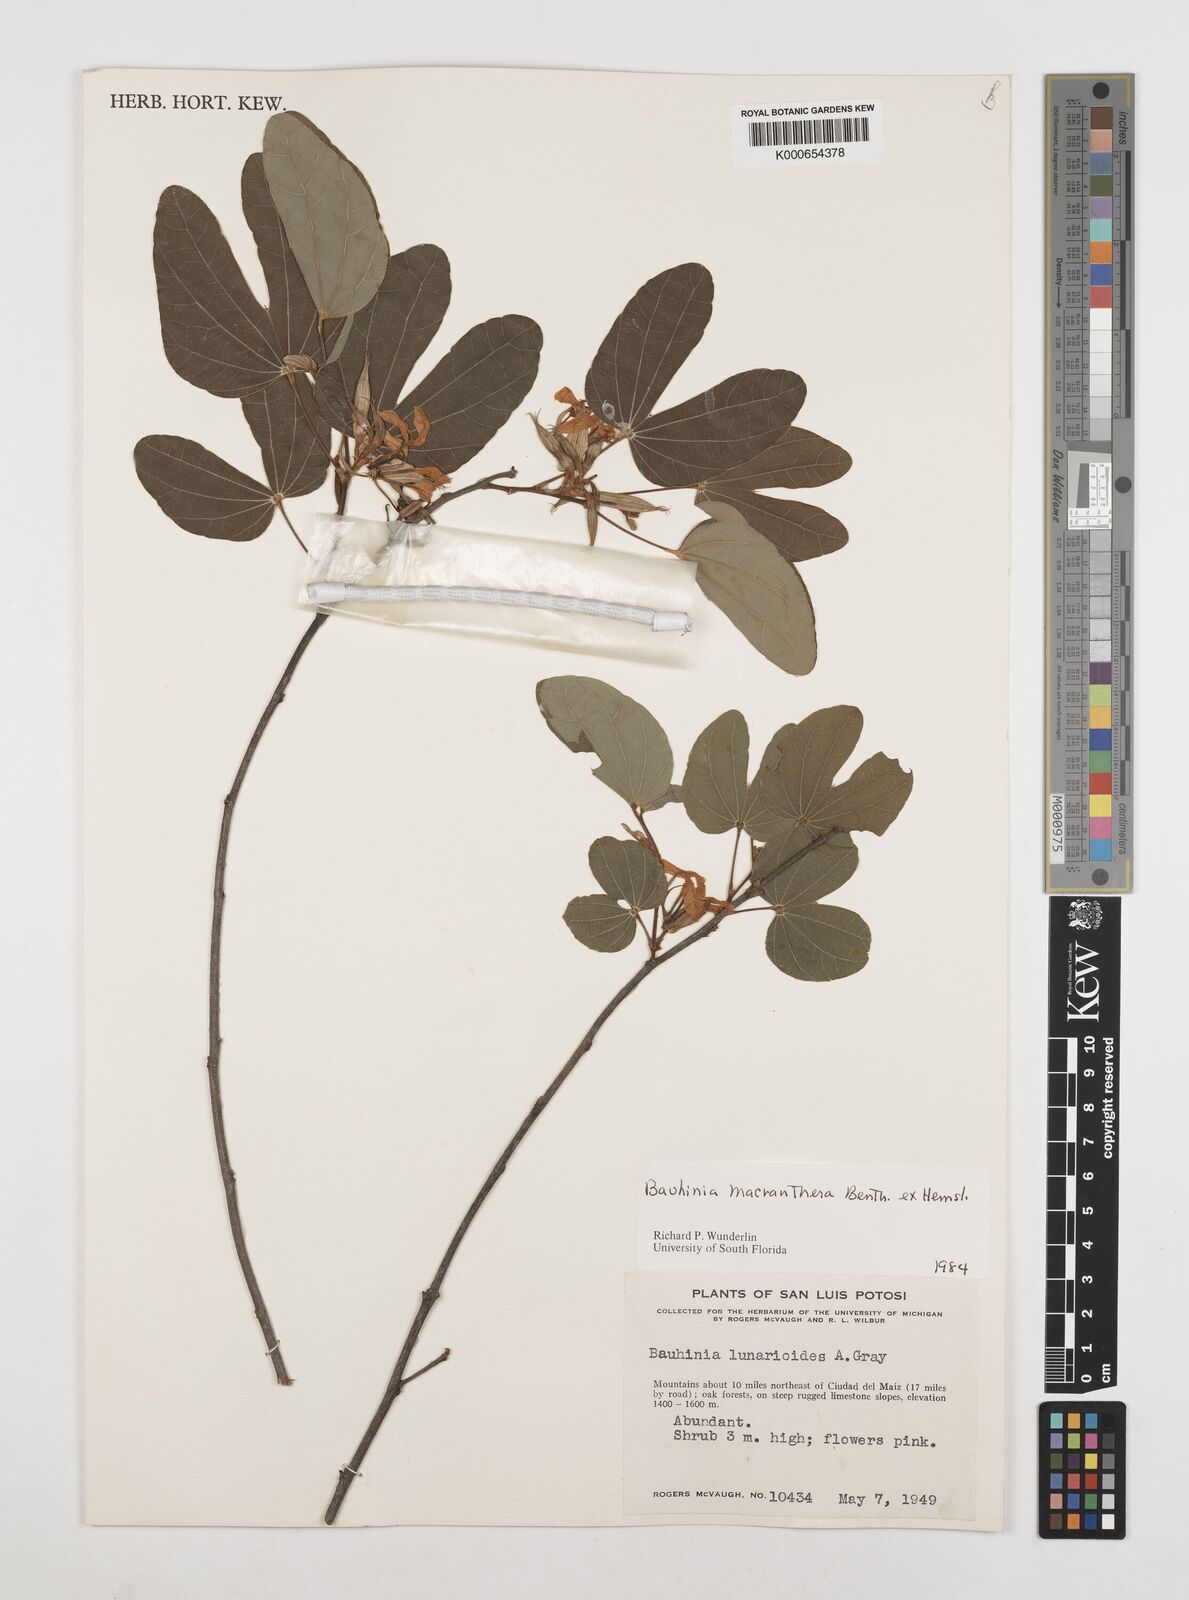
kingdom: Plantae
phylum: Tracheophyta
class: Magnoliopsida
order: Fabales
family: Fabaceae
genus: Bauhinia
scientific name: Bauhinia macranthera
